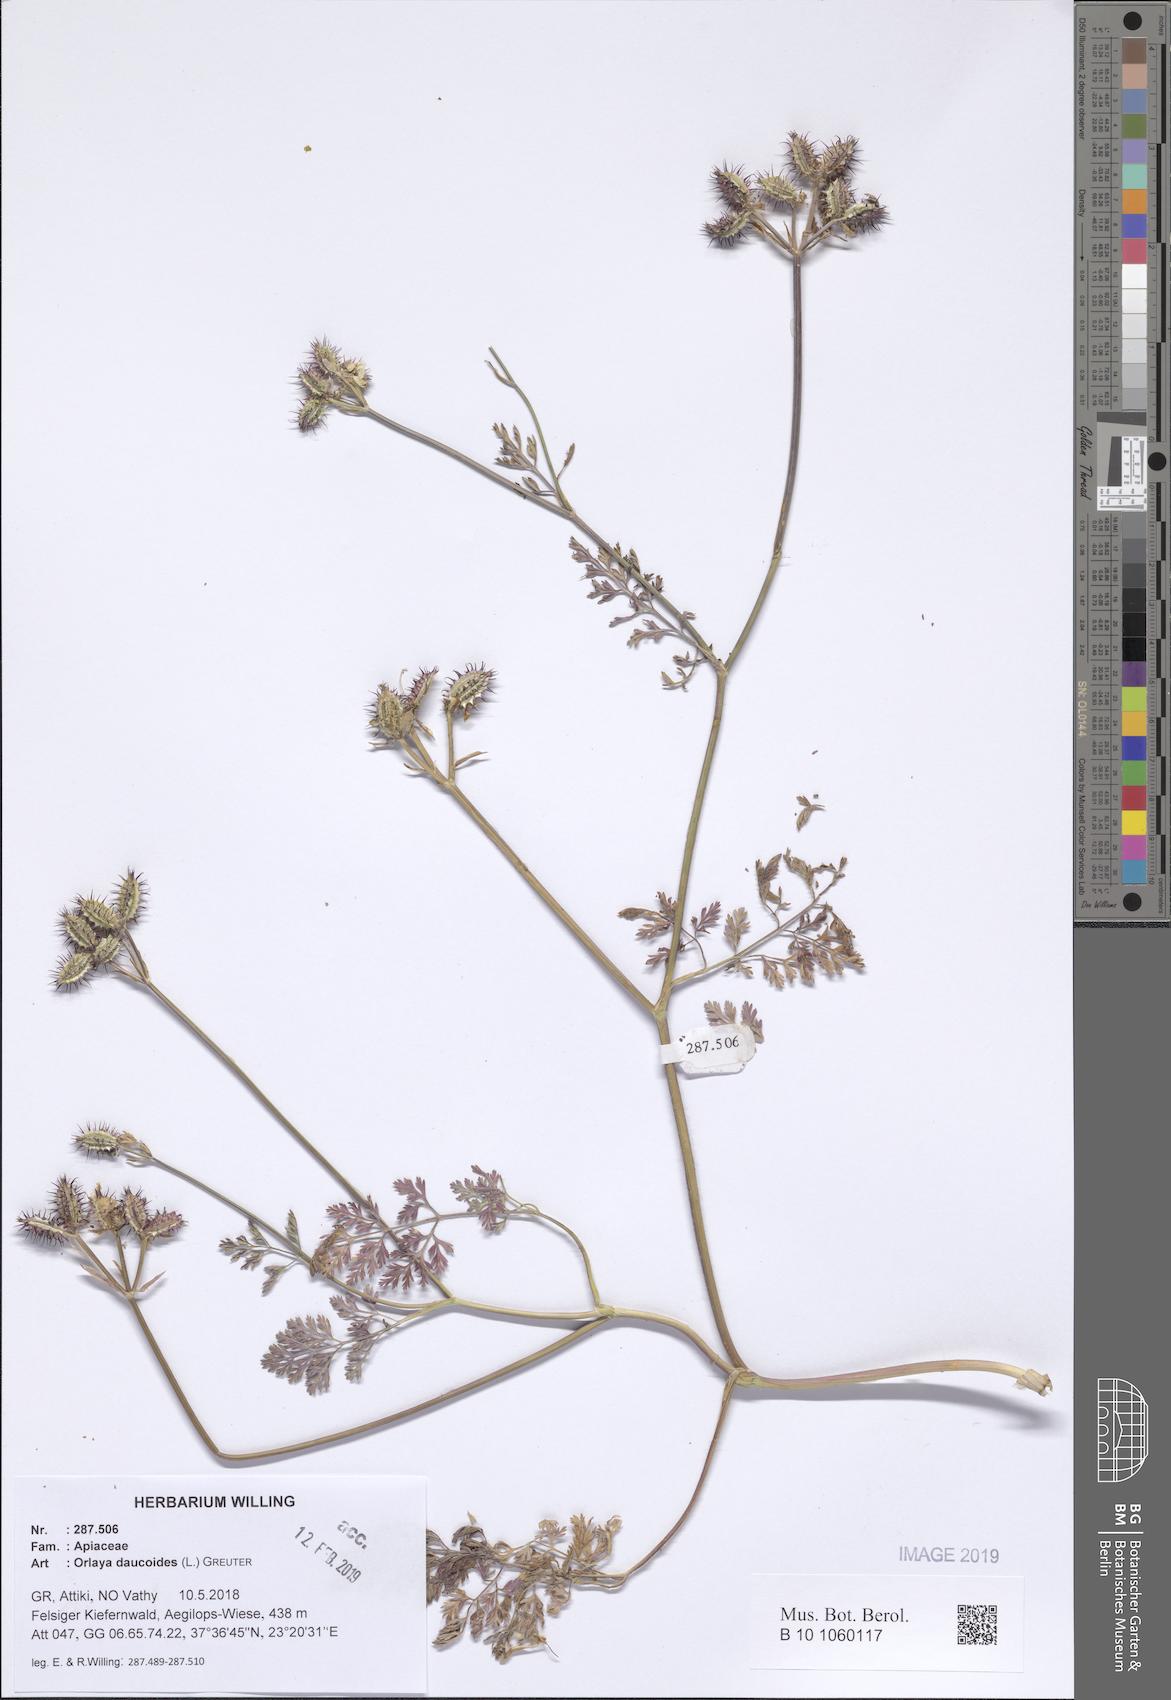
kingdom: Plantae
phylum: Tracheophyta
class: Magnoliopsida
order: Apiales
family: Apiaceae
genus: Orlaya
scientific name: Orlaya daucoides
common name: Flat-fruit orlaya
